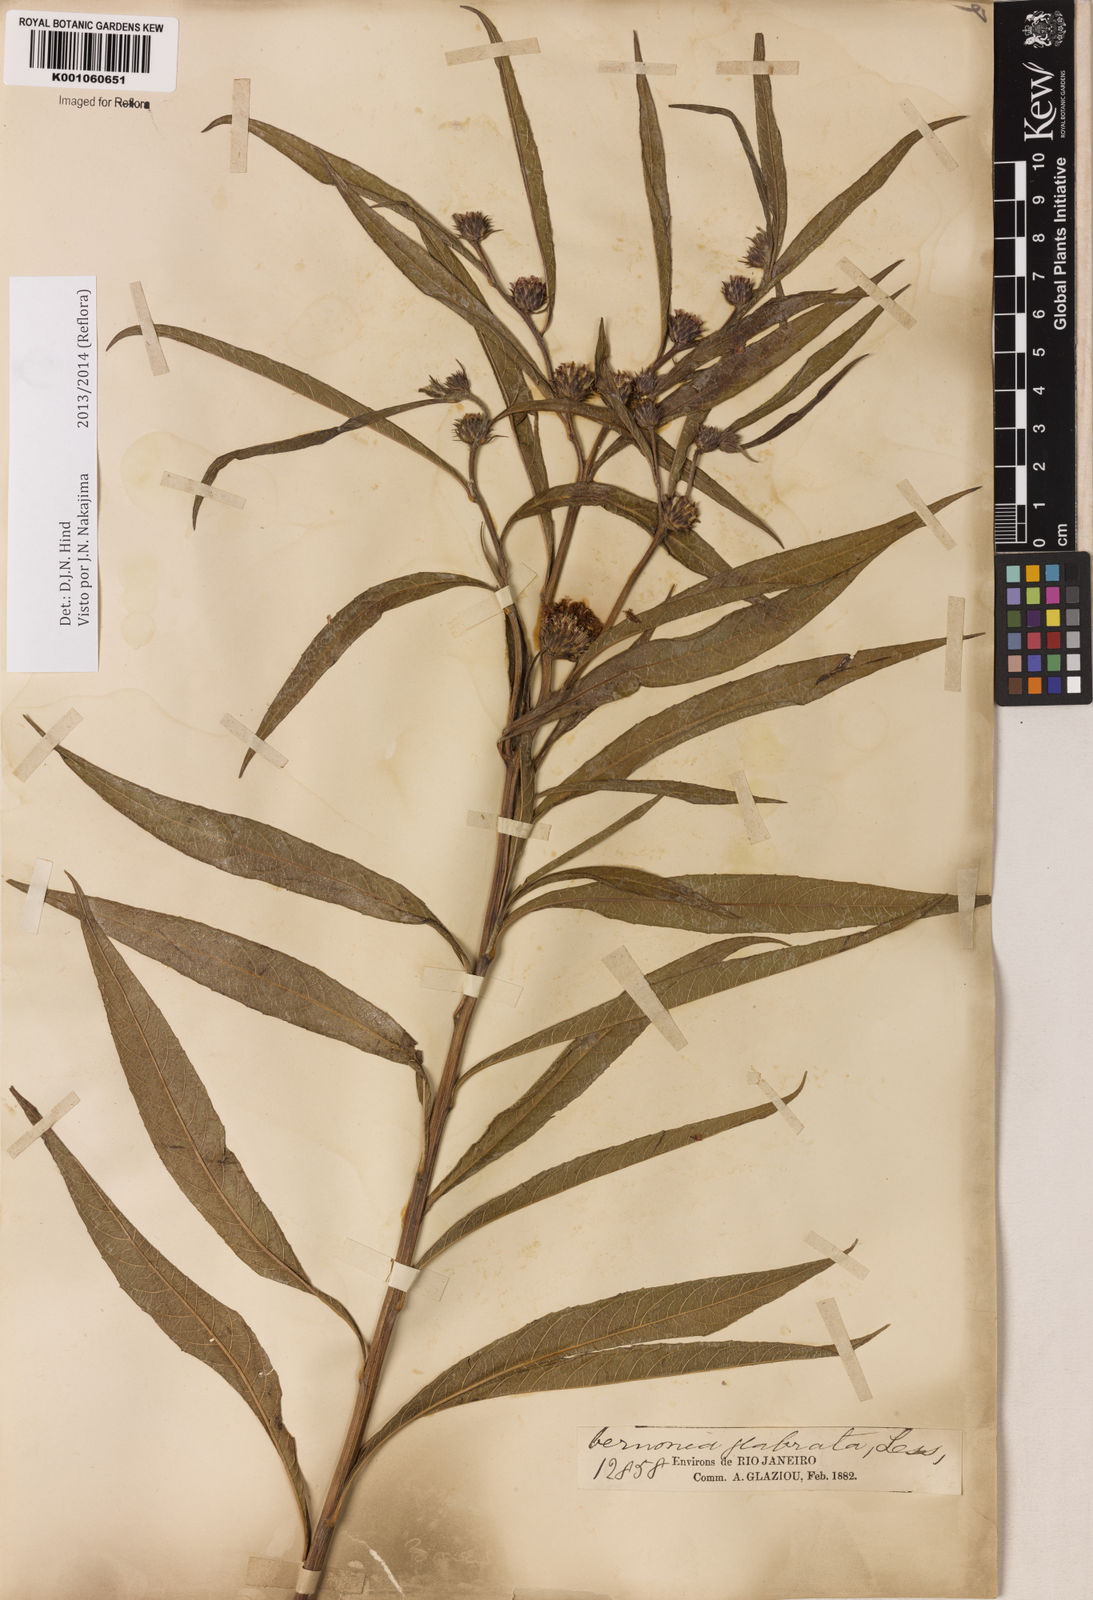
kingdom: Plantae
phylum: Tracheophyta
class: Magnoliopsida
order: Asterales
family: Asteraceae
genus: Lessingianthus
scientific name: Lessingianthus glabratus
